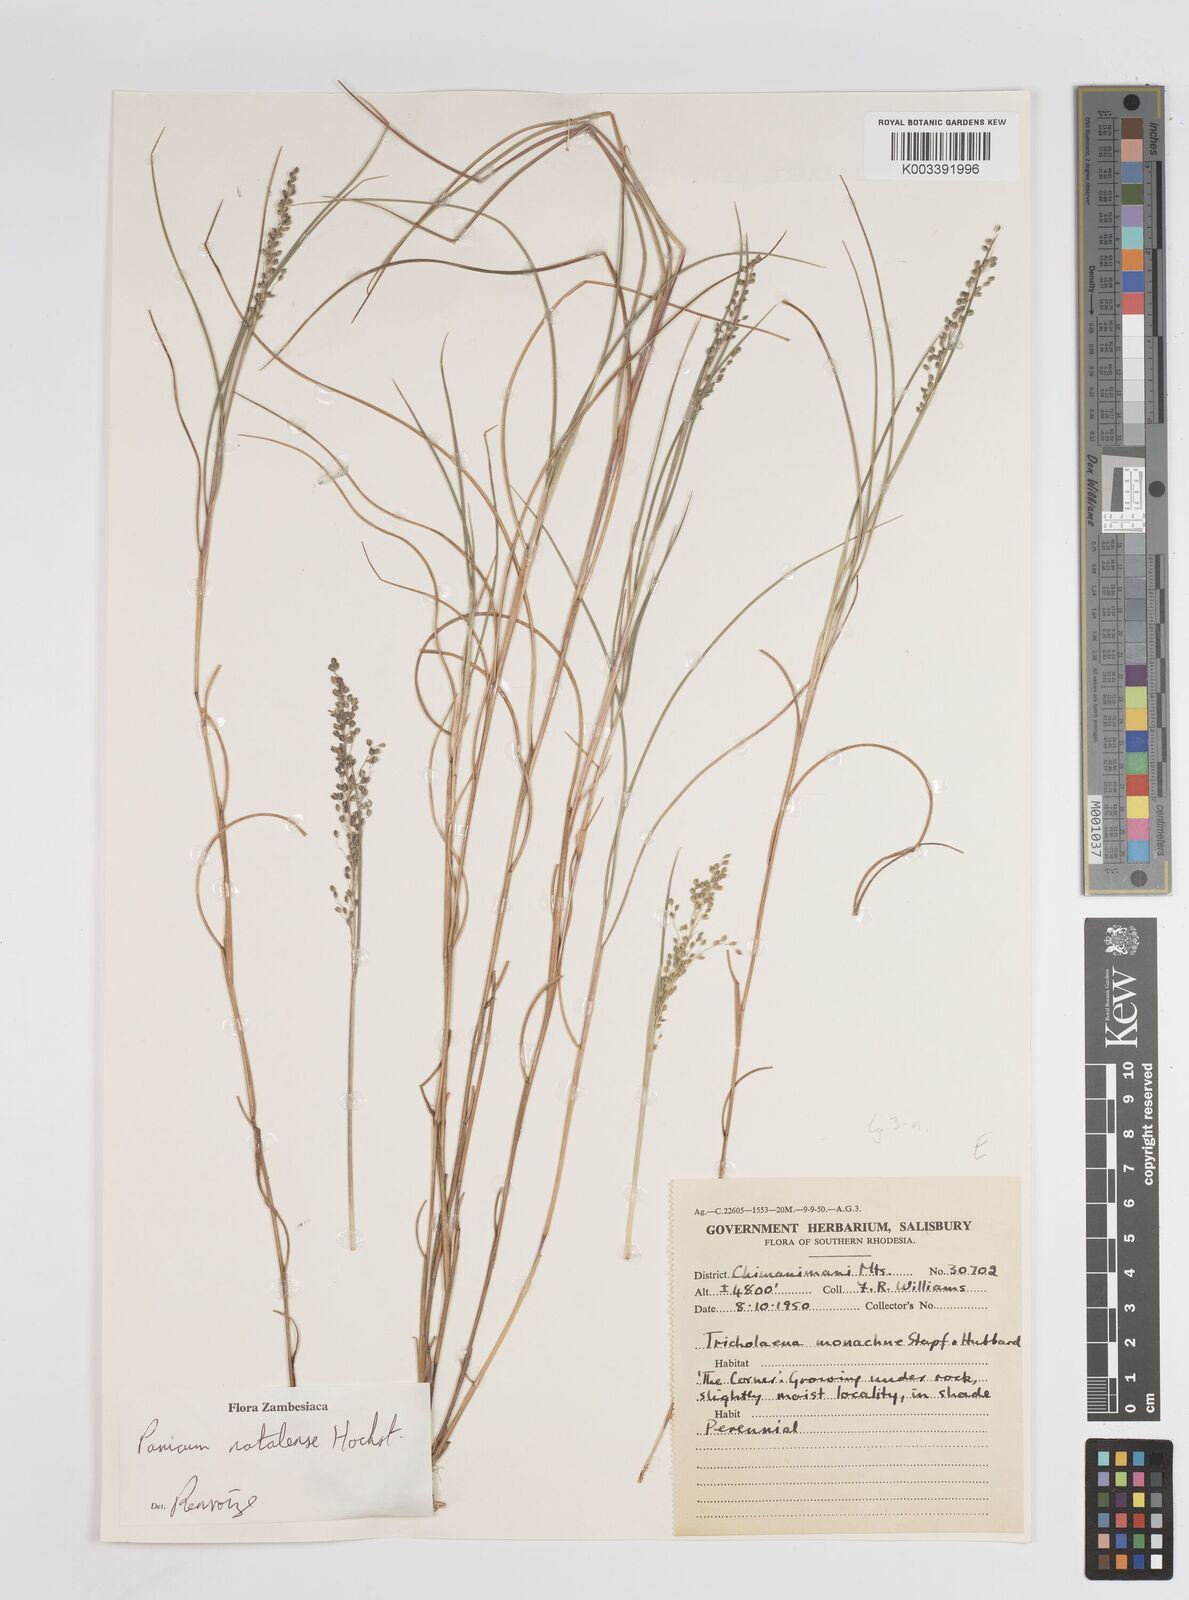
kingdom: Plantae
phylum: Tracheophyta
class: Liliopsida
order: Poales
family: Poaceae
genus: Trichanthecium
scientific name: Trichanthecium natalense
